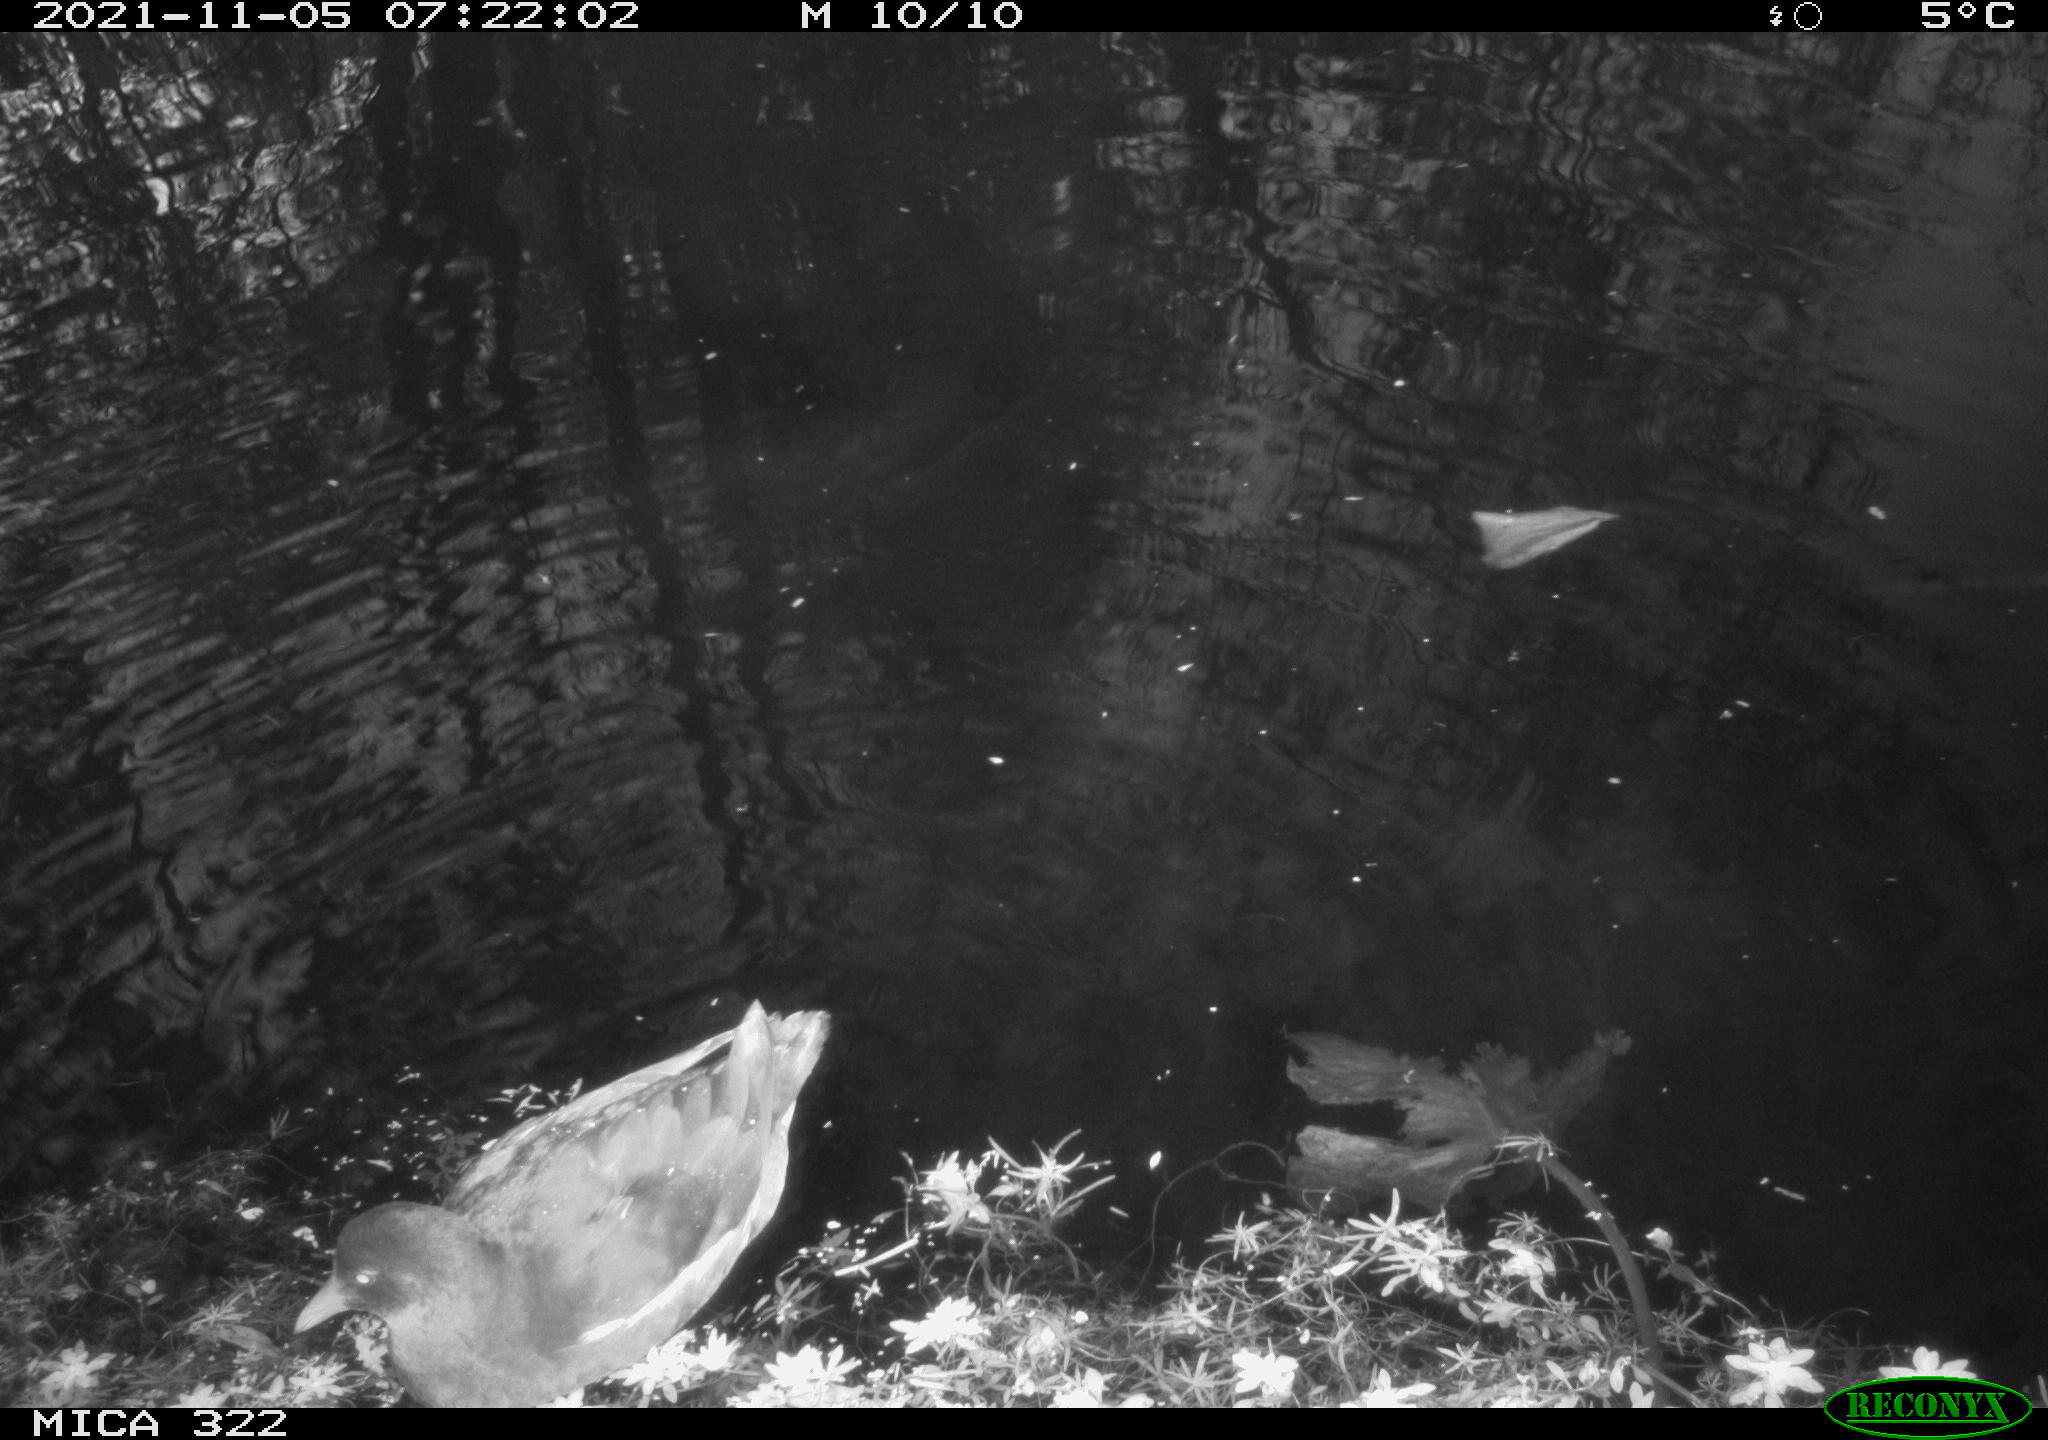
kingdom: Animalia
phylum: Chordata
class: Aves
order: Gruiformes
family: Rallidae
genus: Gallinula
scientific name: Gallinula chloropus
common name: Common moorhen
